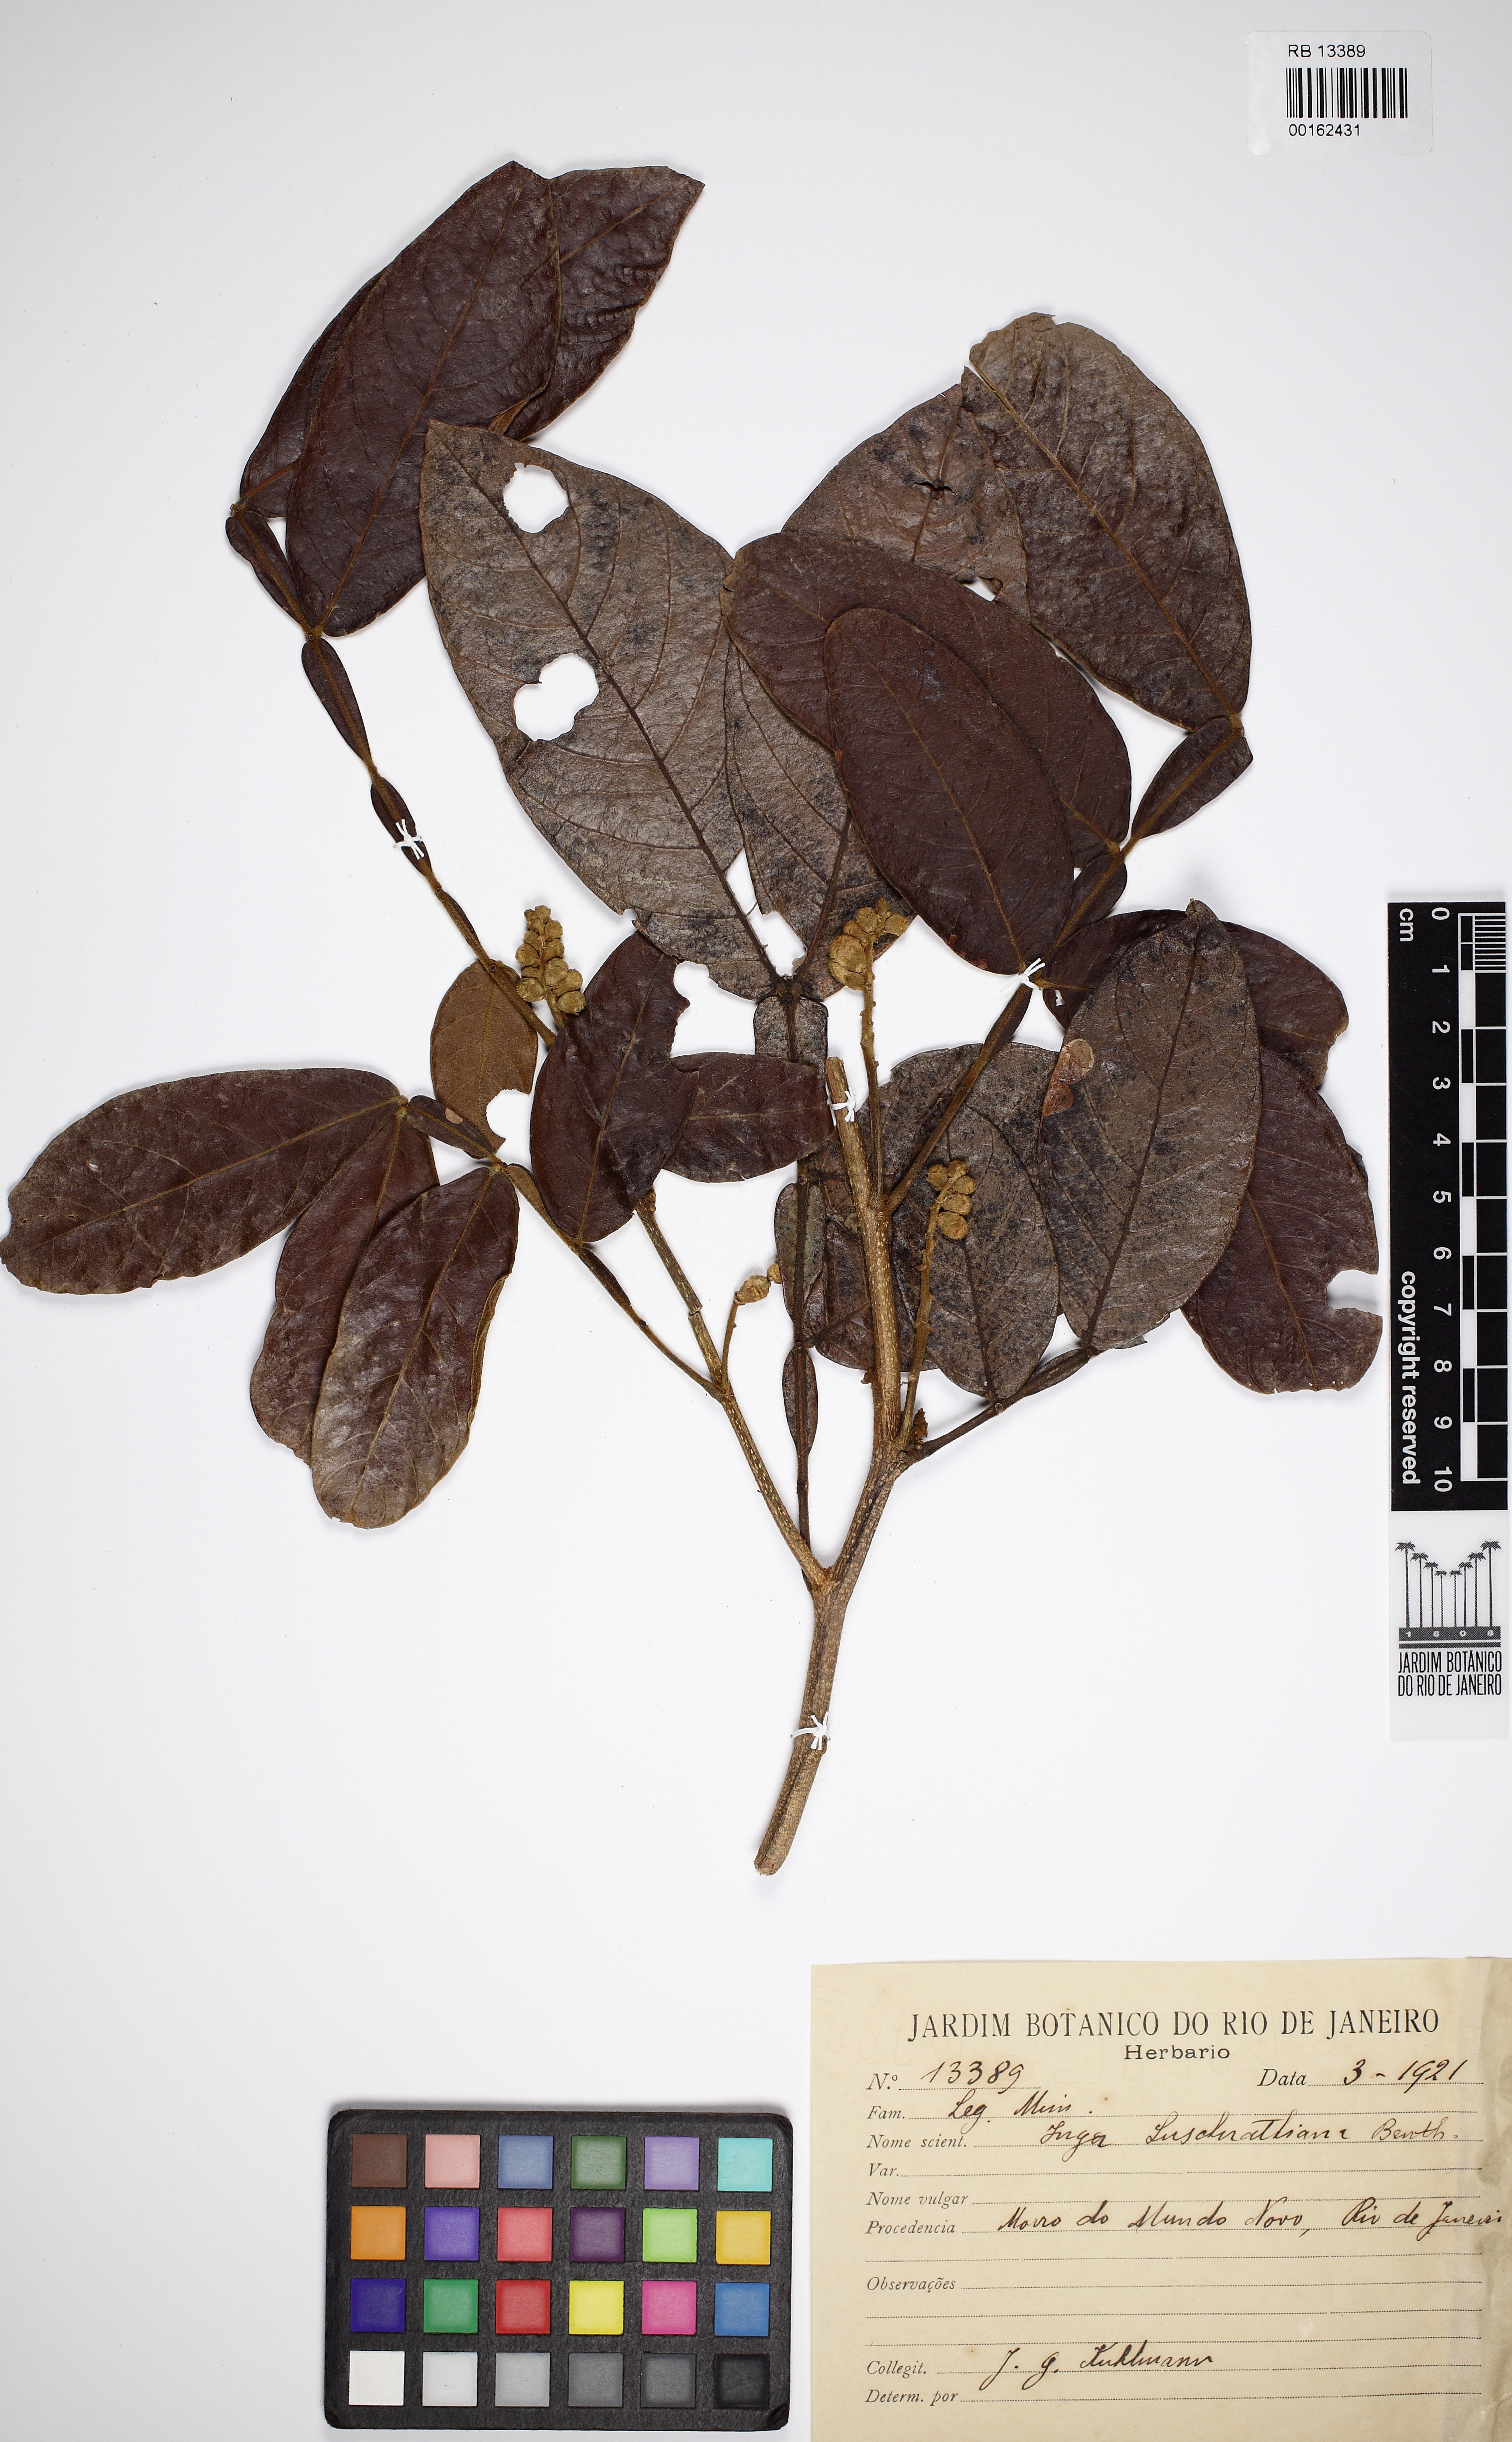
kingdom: Plantae
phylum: Tracheophyta
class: Magnoliopsida
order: Fabales
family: Fabaceae
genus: Inga
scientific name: Inga subnuda
